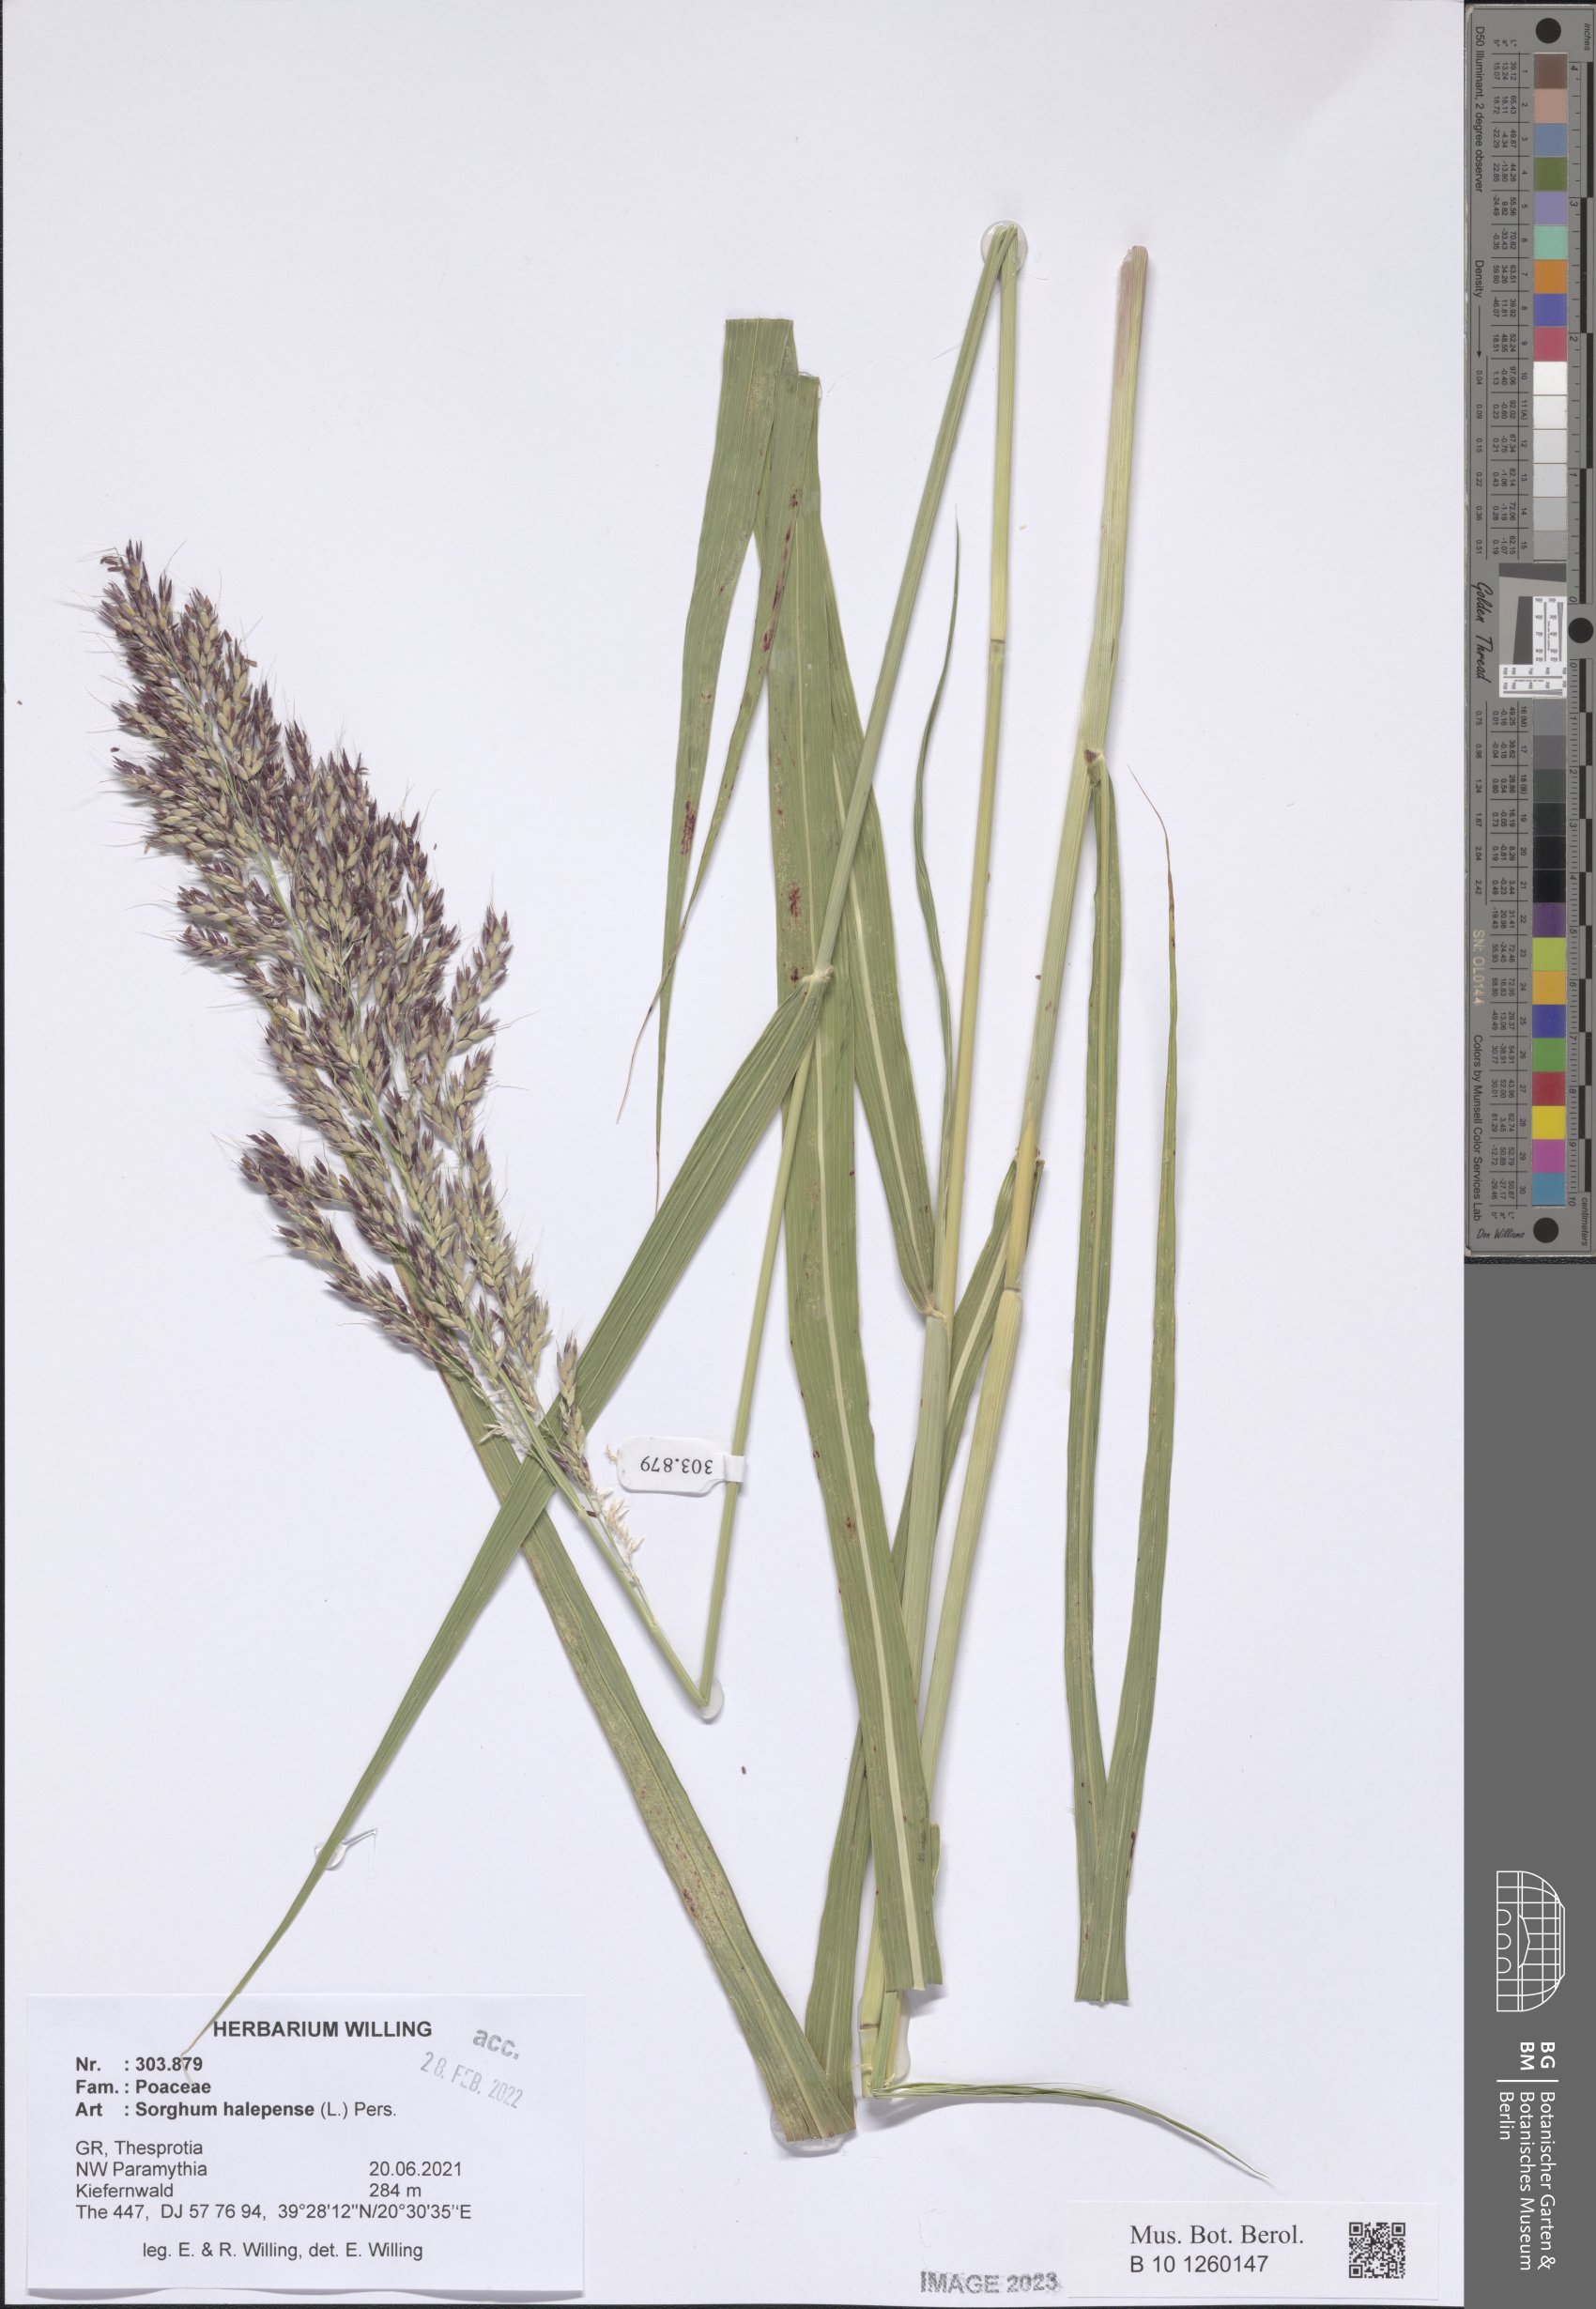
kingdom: Plantae
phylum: Tracheophyta
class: Liliopsida
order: Poales
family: Poaceae
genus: Sorghum
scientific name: Sorghum halepense
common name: Johnson-grass
